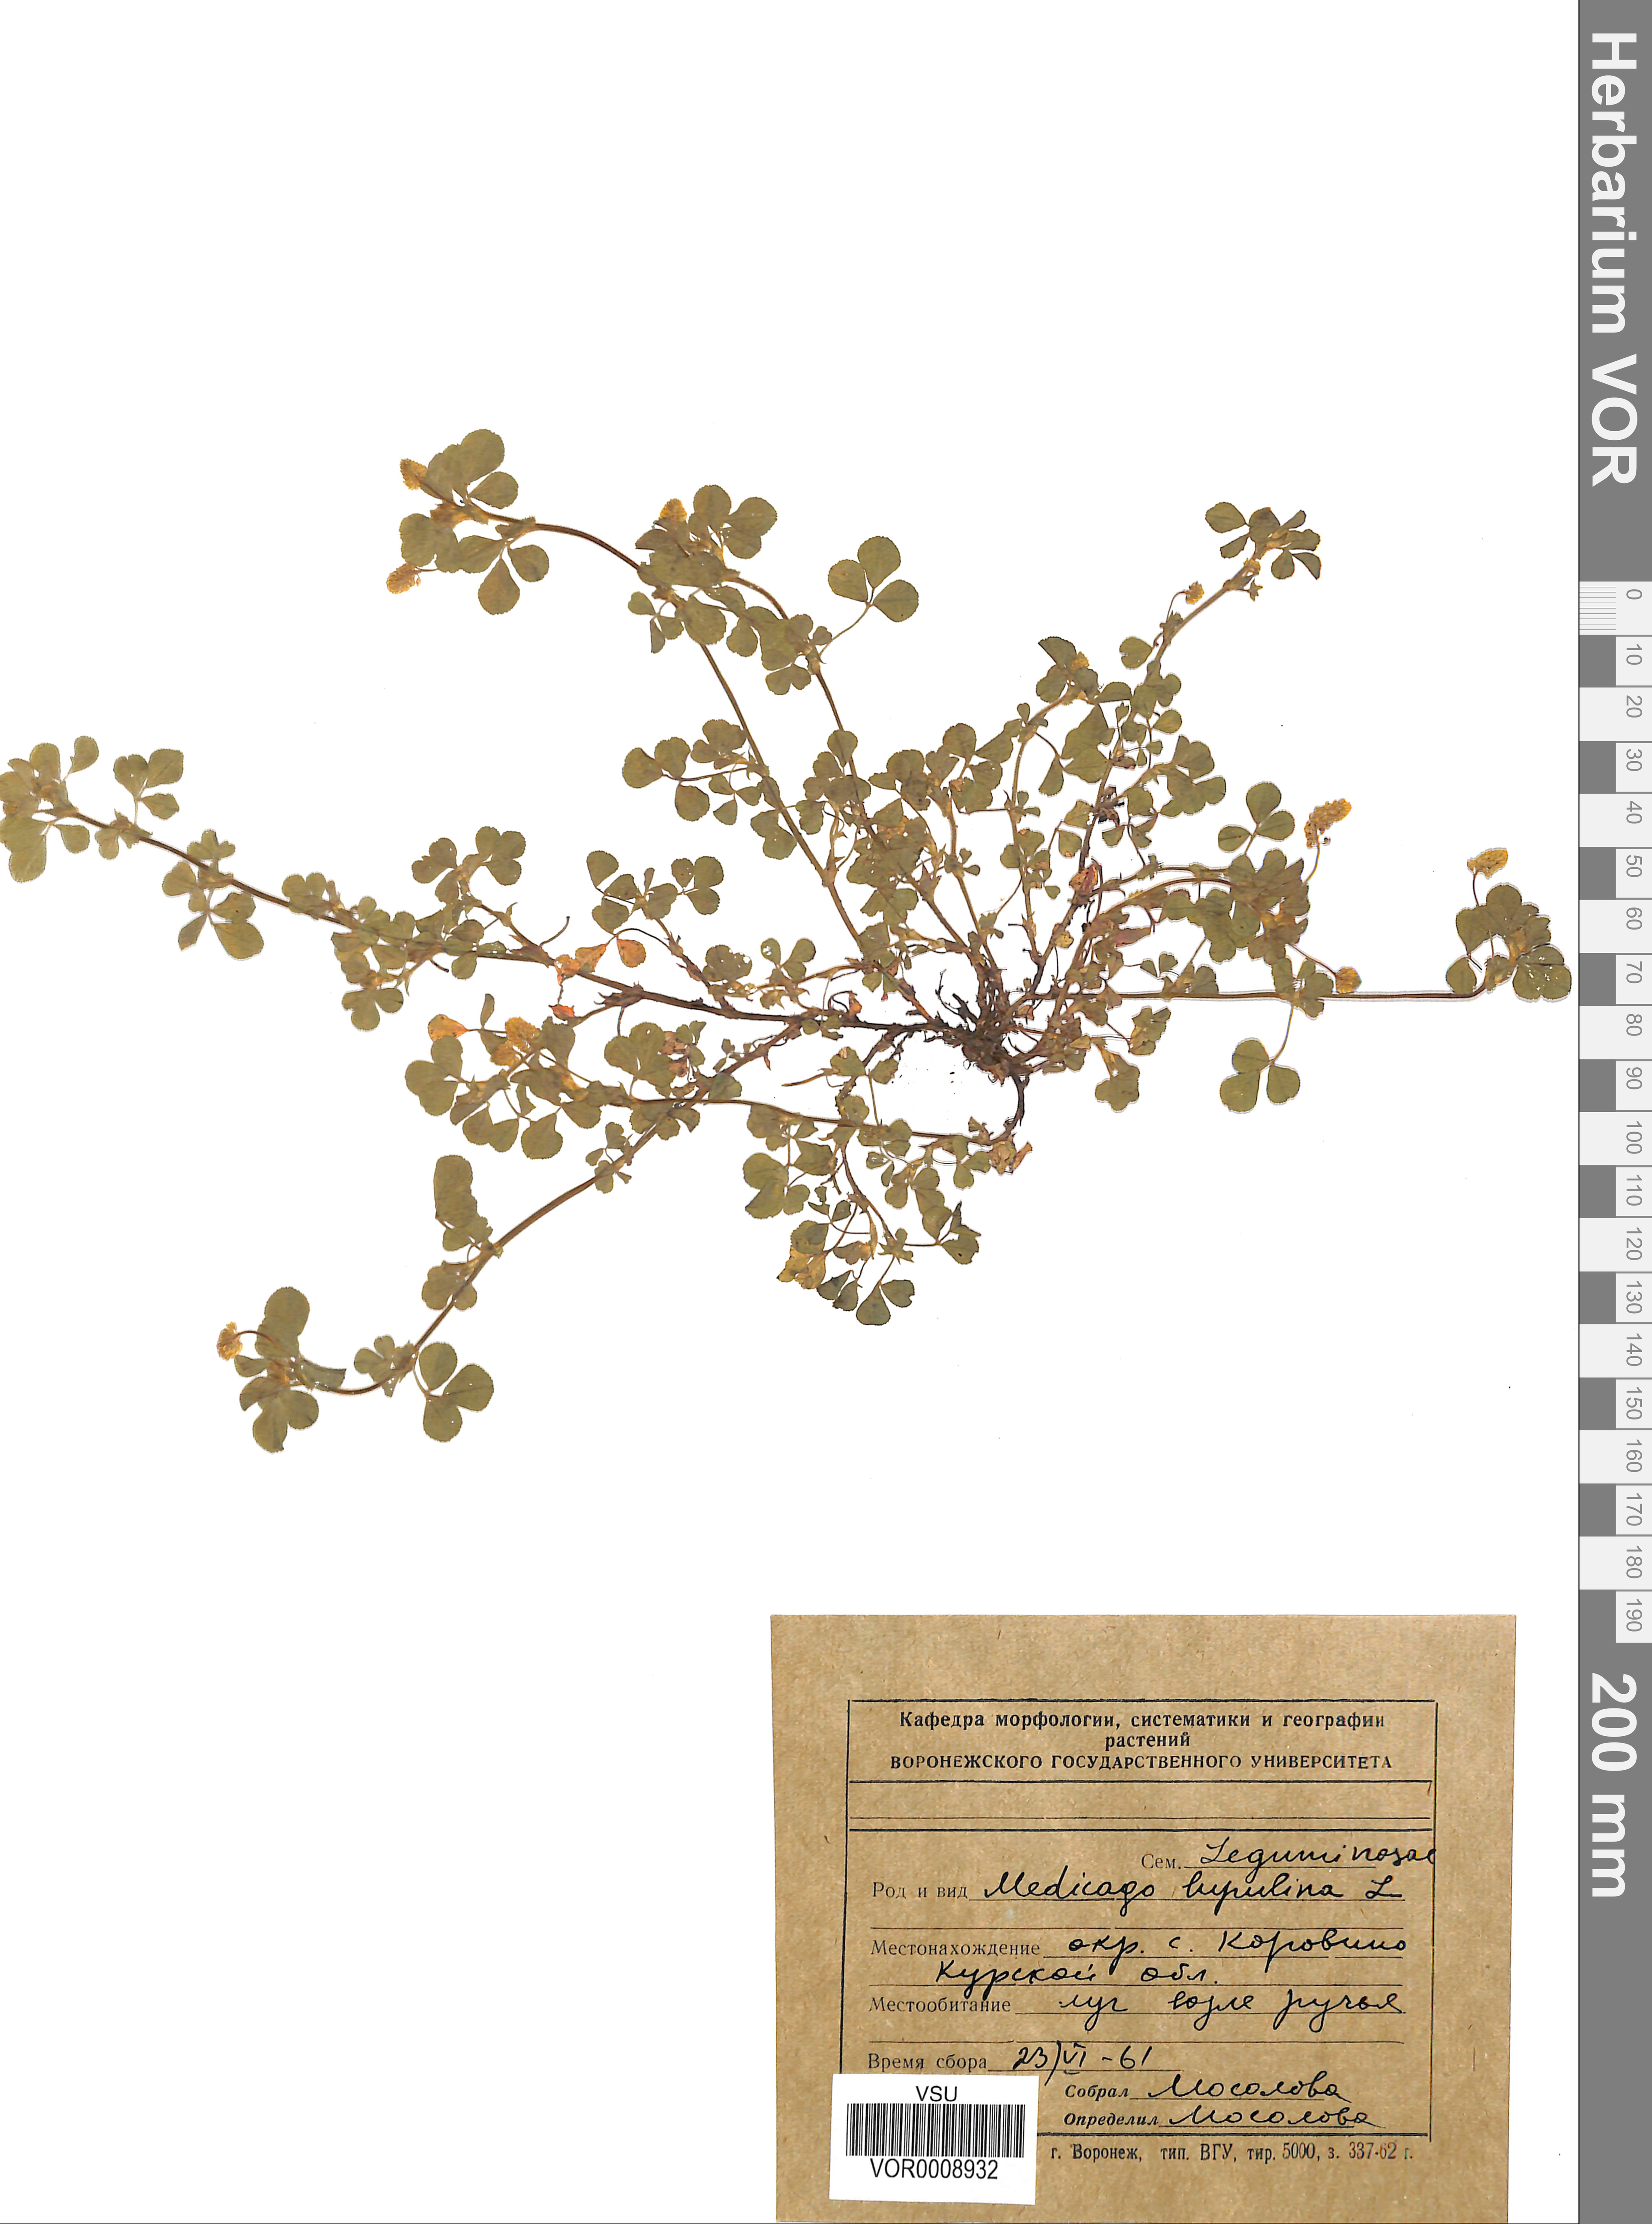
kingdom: Plantae
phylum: Tracheophyta
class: Magnoliopsida
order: Fabales
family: Fabaceae
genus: Medicago
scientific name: Medicago lupulina
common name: Black medick
